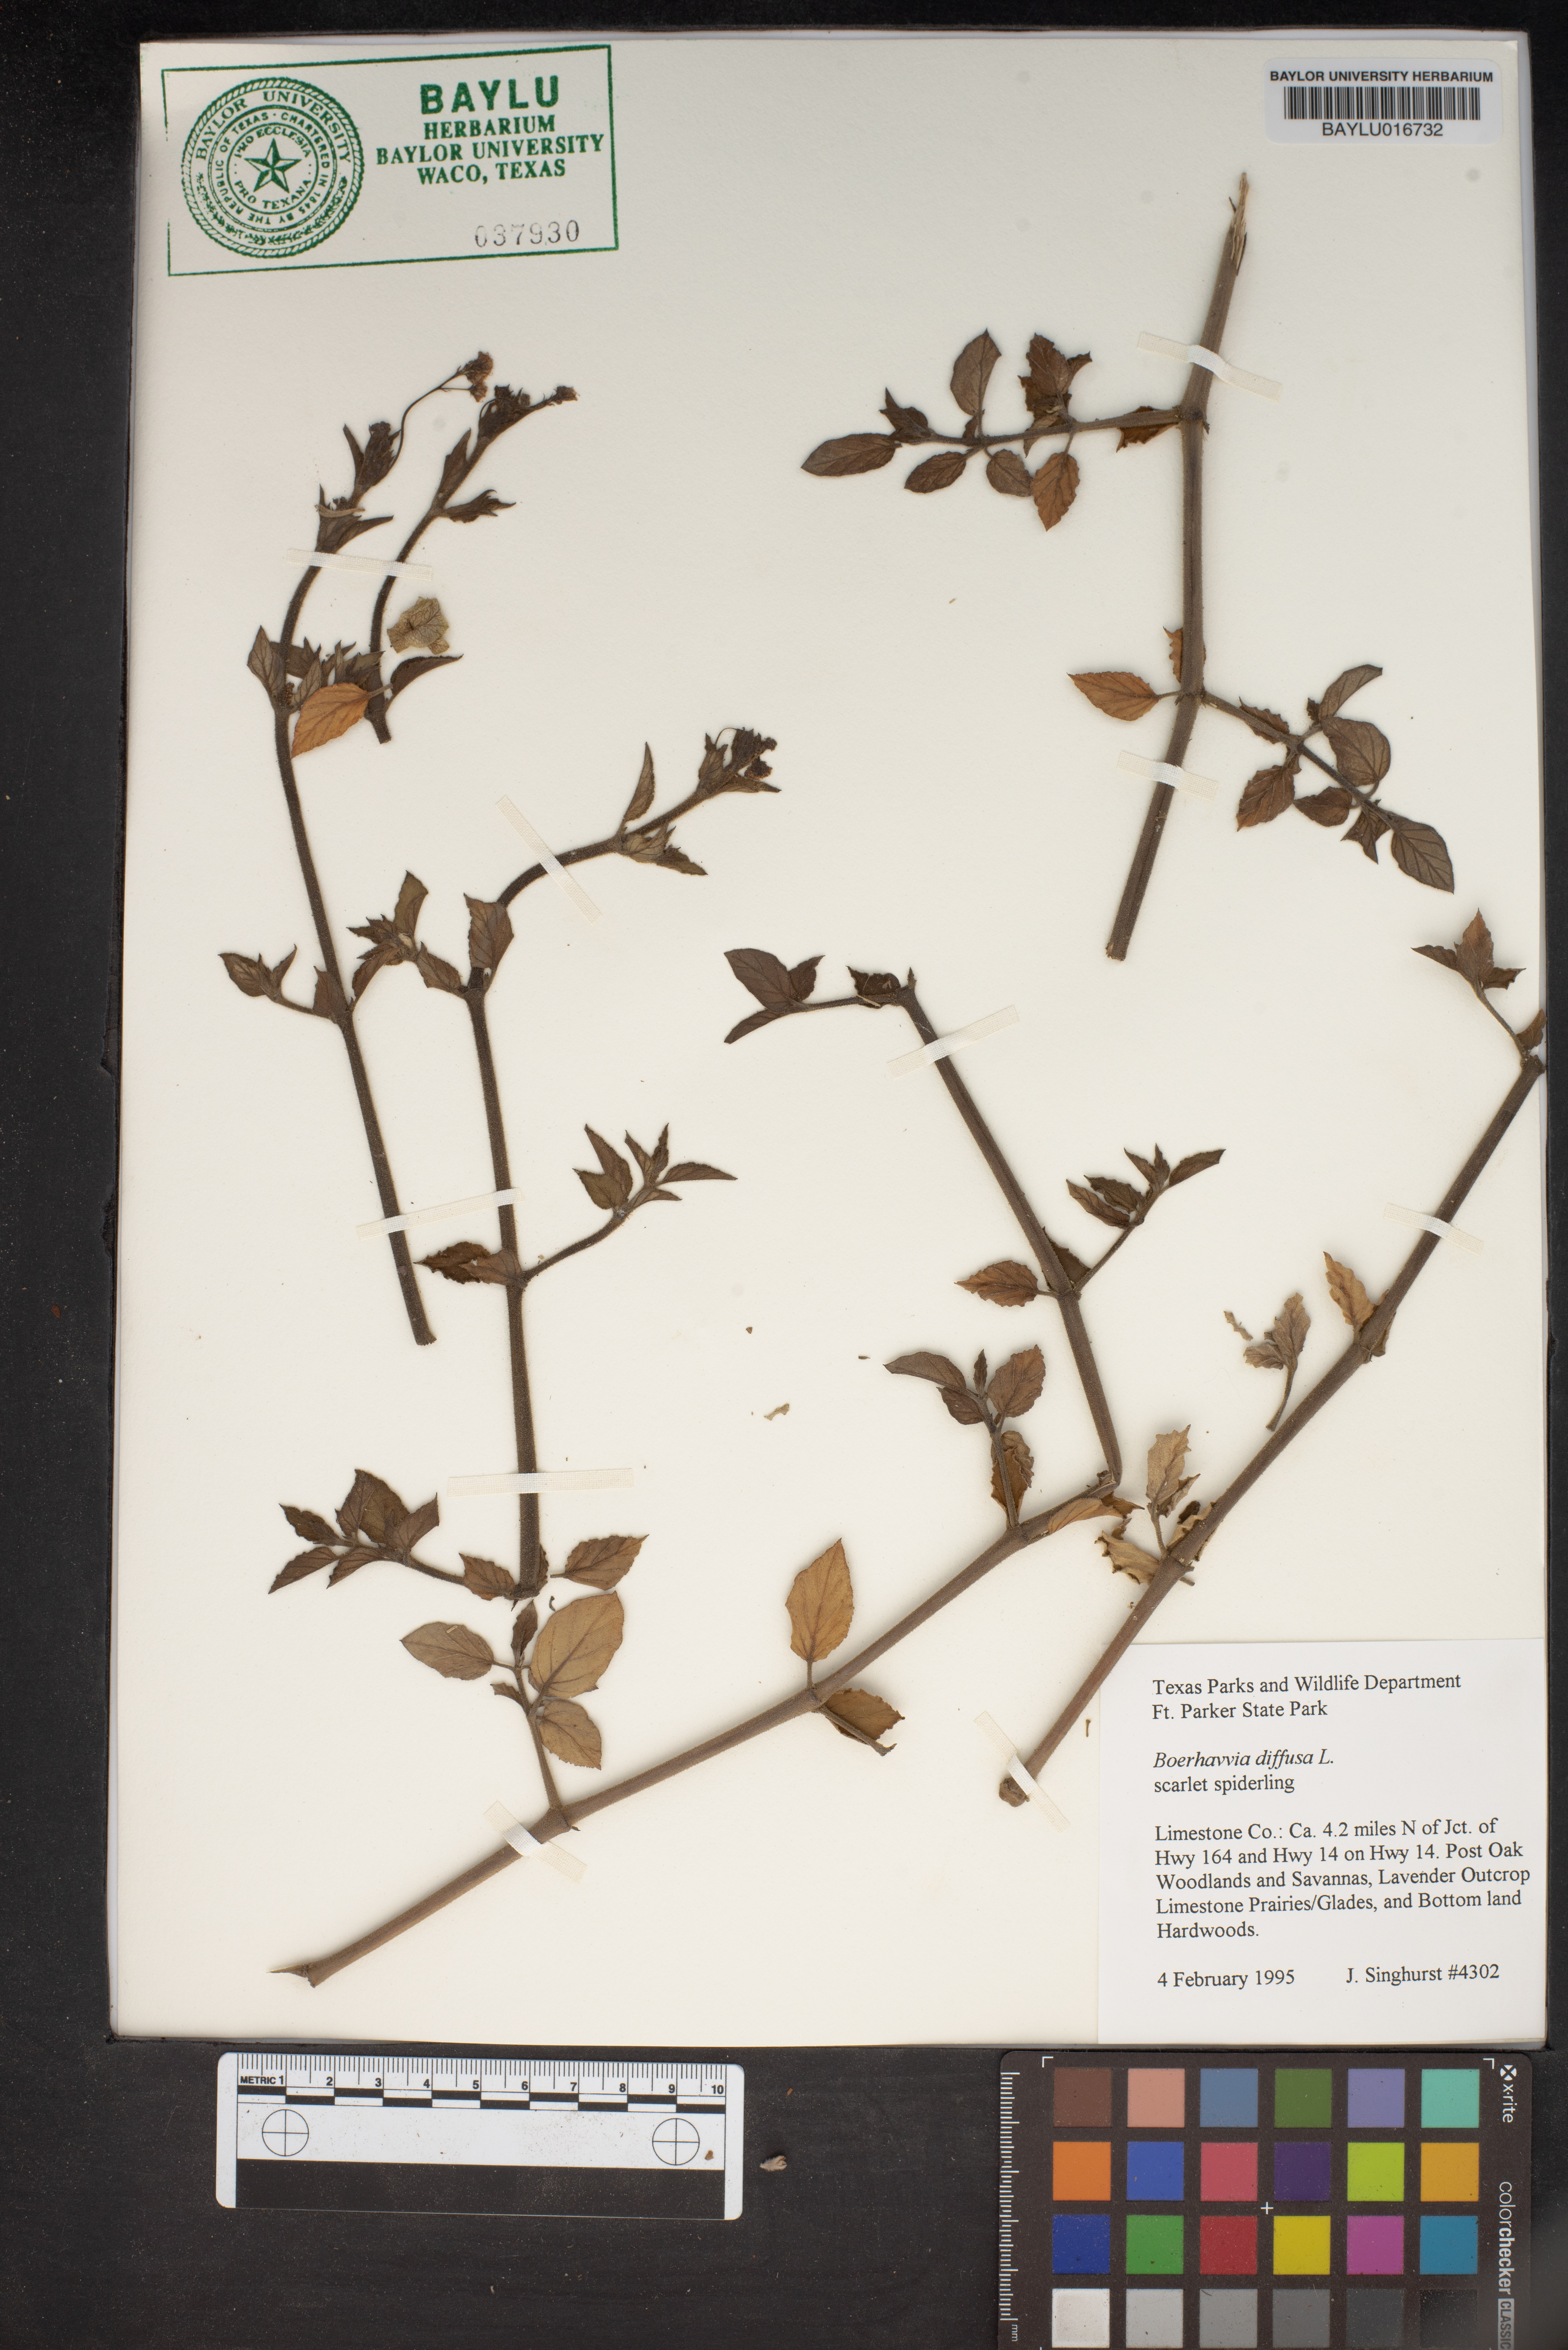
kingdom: Plantae
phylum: Tracheophyta
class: Magnoliopsida
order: Caryophyllales
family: Nyctaginaceae
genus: Boerhavia
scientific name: Boerhavia diffusa
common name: Red spiderling
